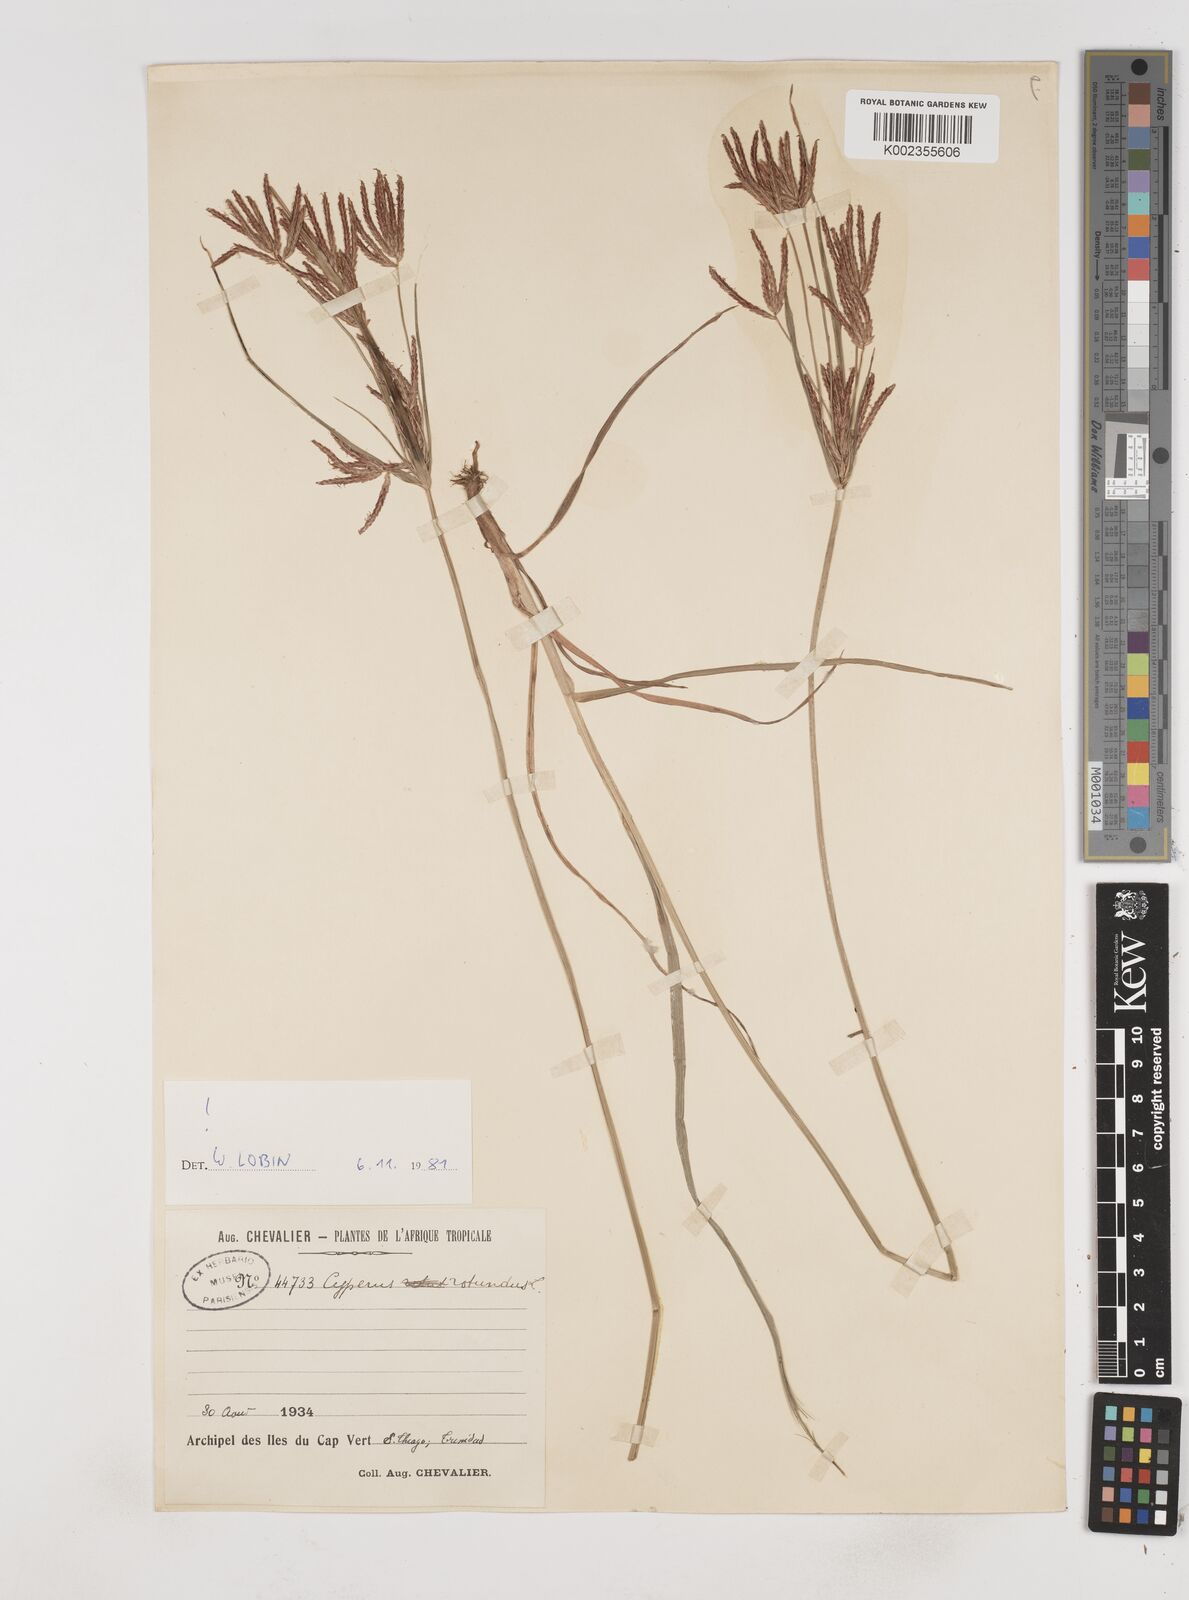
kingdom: Plantae
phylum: Tracheophyta
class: Liliopsida
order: Poales
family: Cyperaceae
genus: Cyperus
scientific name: Cyperus rotundus
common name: Nutgrass
